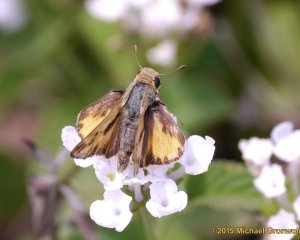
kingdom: Animalia
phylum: Arthropoda
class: Insecta
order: Lepidoptera
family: Hesperiidae
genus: Hylephila
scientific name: Hylephila phyleus
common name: Fiery Skipper
